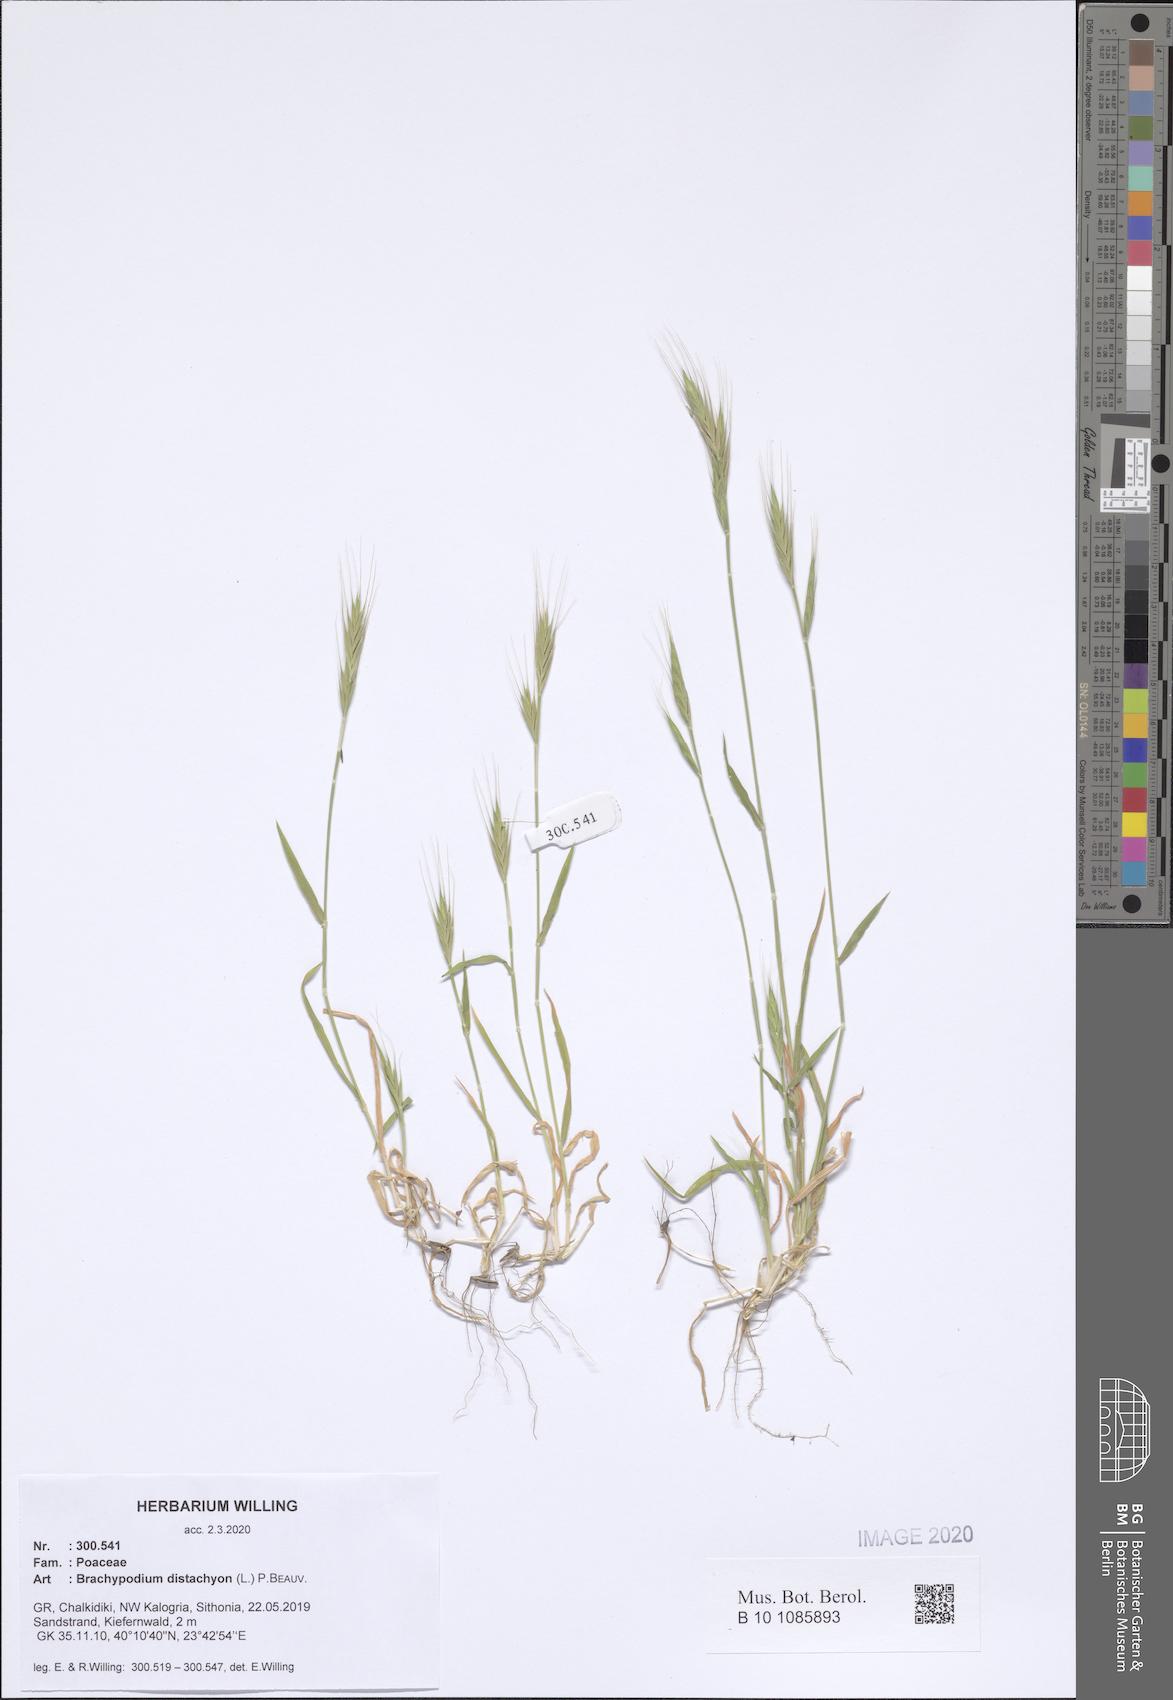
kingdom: Plantae
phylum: Tracheophyta
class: Liliopsida
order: Poales
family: Poaceae
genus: Brachypodium
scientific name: Brachypodium distachyon
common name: Stiff brome
